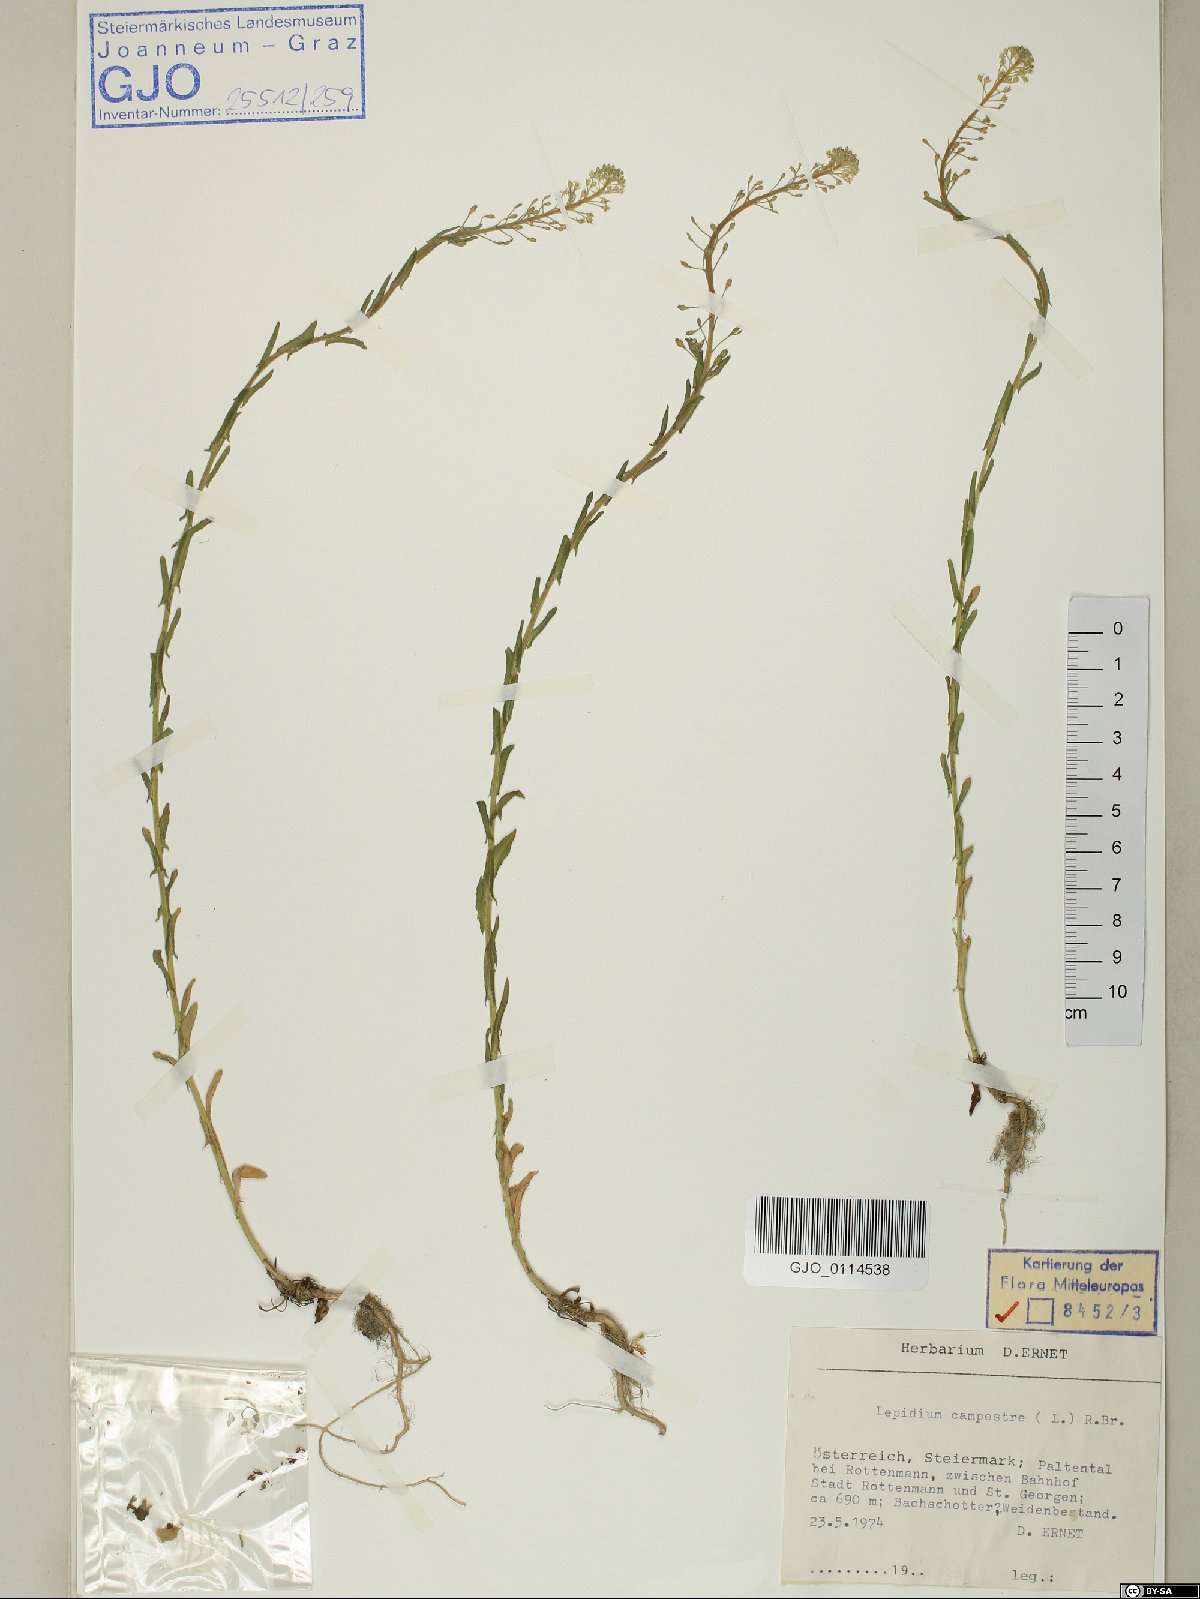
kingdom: Plantae
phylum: Tracheophyta
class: Magnoliopsida
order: Brassicales
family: Brassicaceae
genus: Lepidium
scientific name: Lepidium campestre
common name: Field pepperwort
